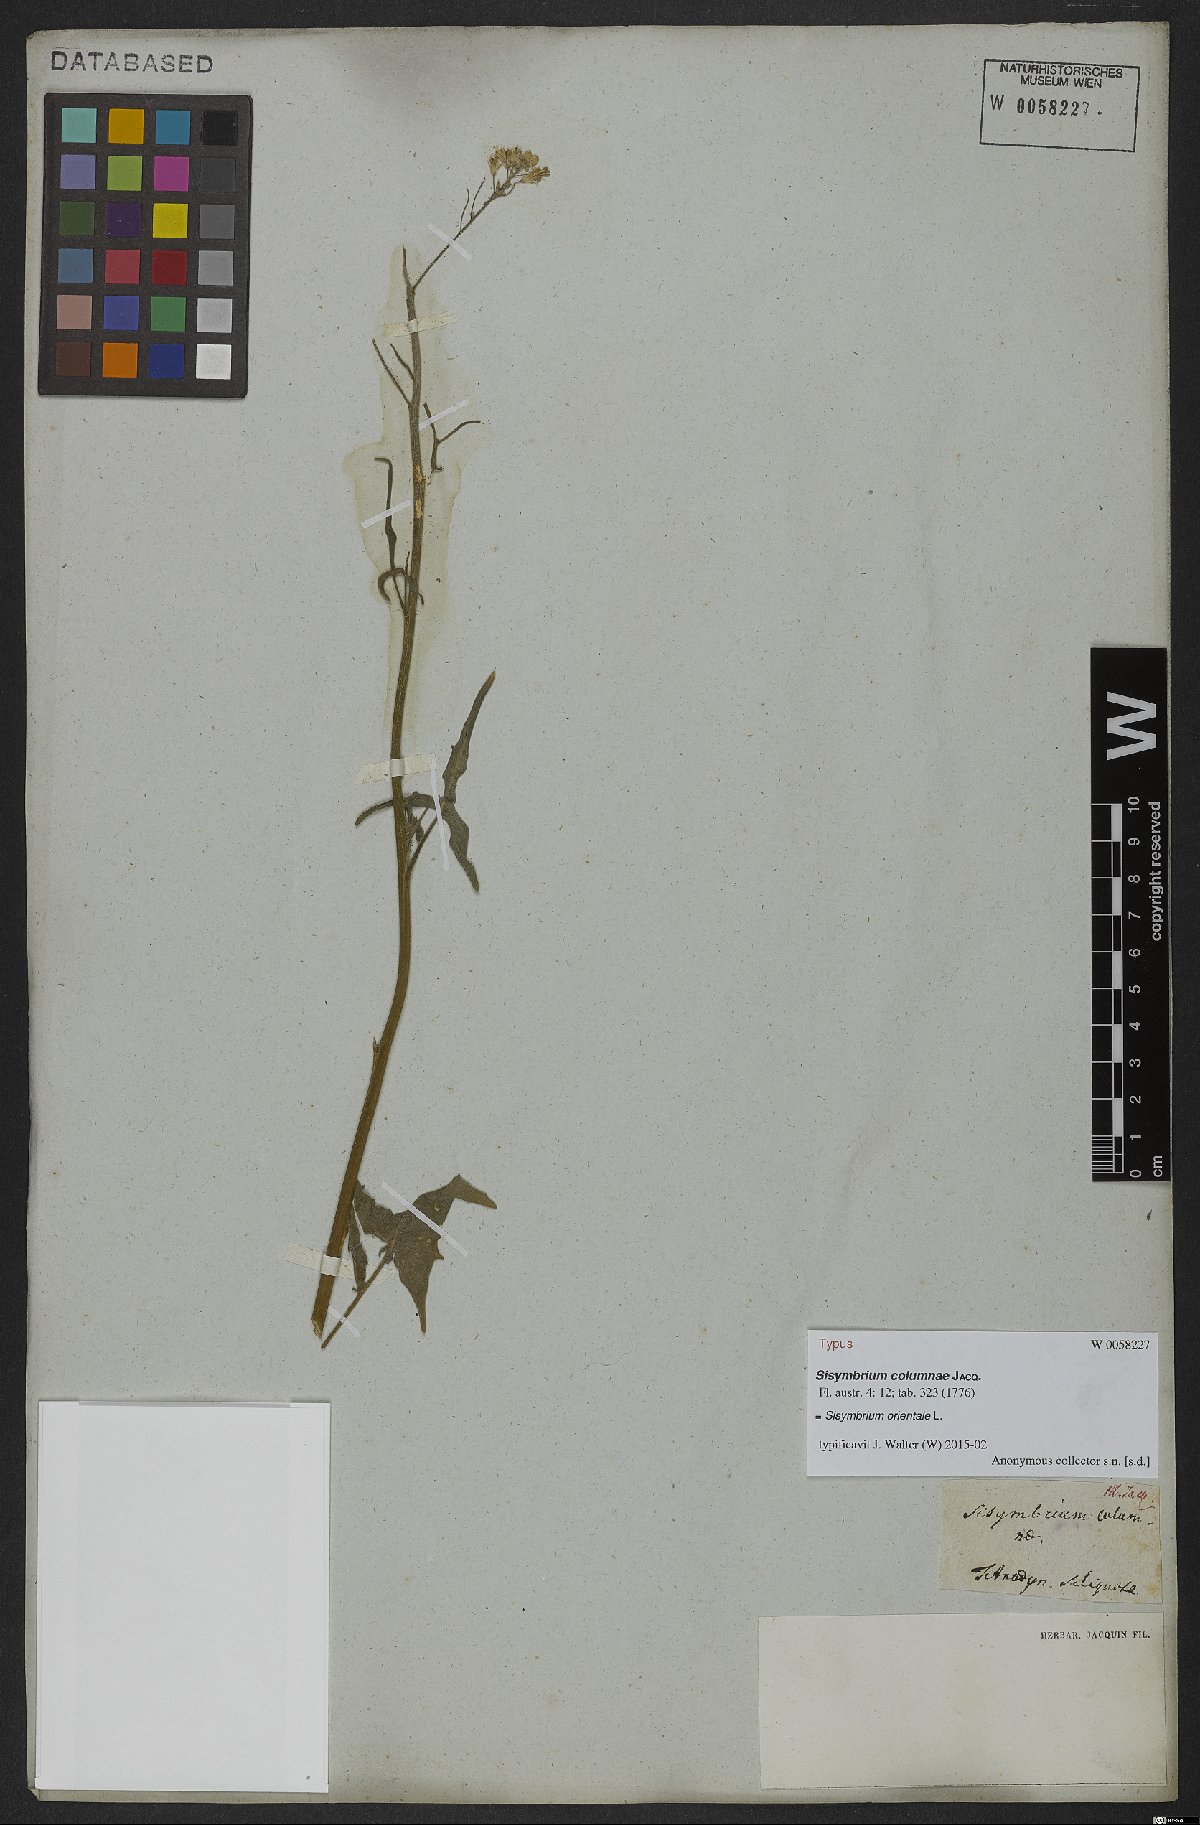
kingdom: Plantae
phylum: Tracheophyta
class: Magnoliopsida
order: Brassicales
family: Brassicaceae
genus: Sisymbrium
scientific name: Sisymbrium orientale
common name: Eastern rocket
